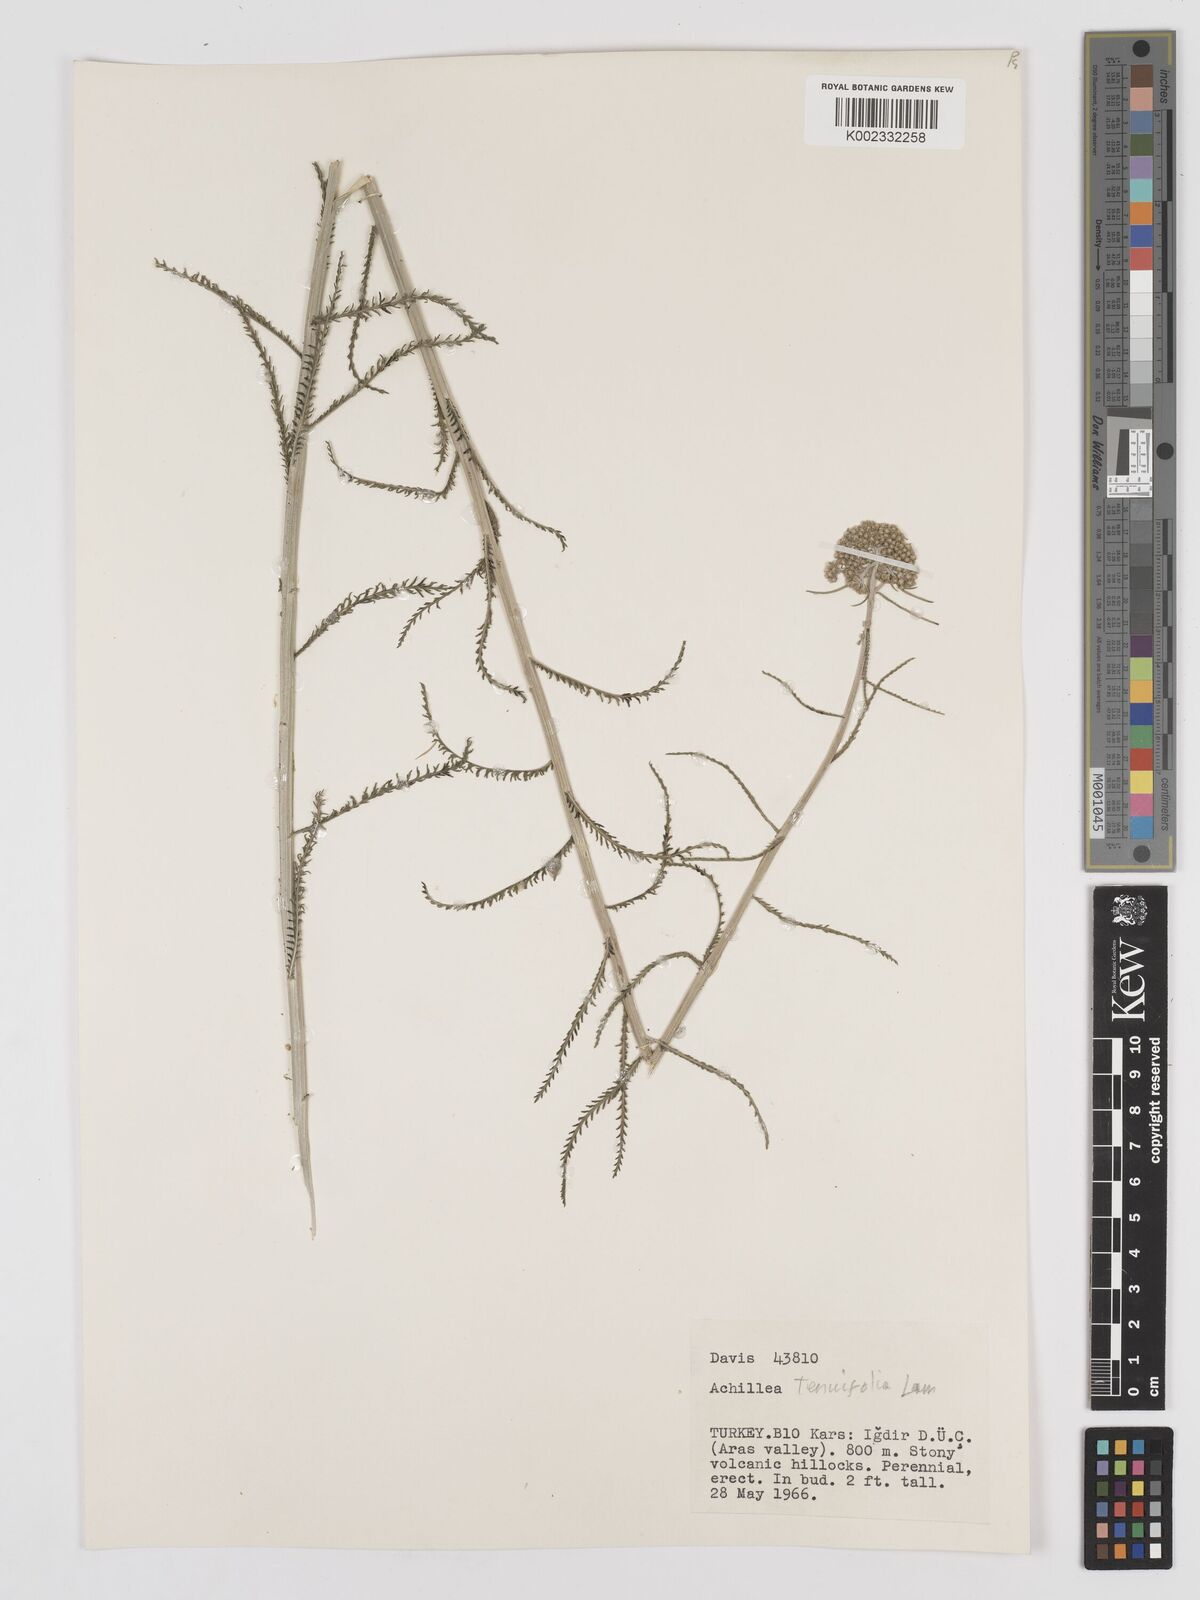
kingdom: Plantae
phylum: Tracheophyta
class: Magnoliopsida
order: Asterales
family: Asteraceae
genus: Achillea
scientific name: Achillea tenuifolia
